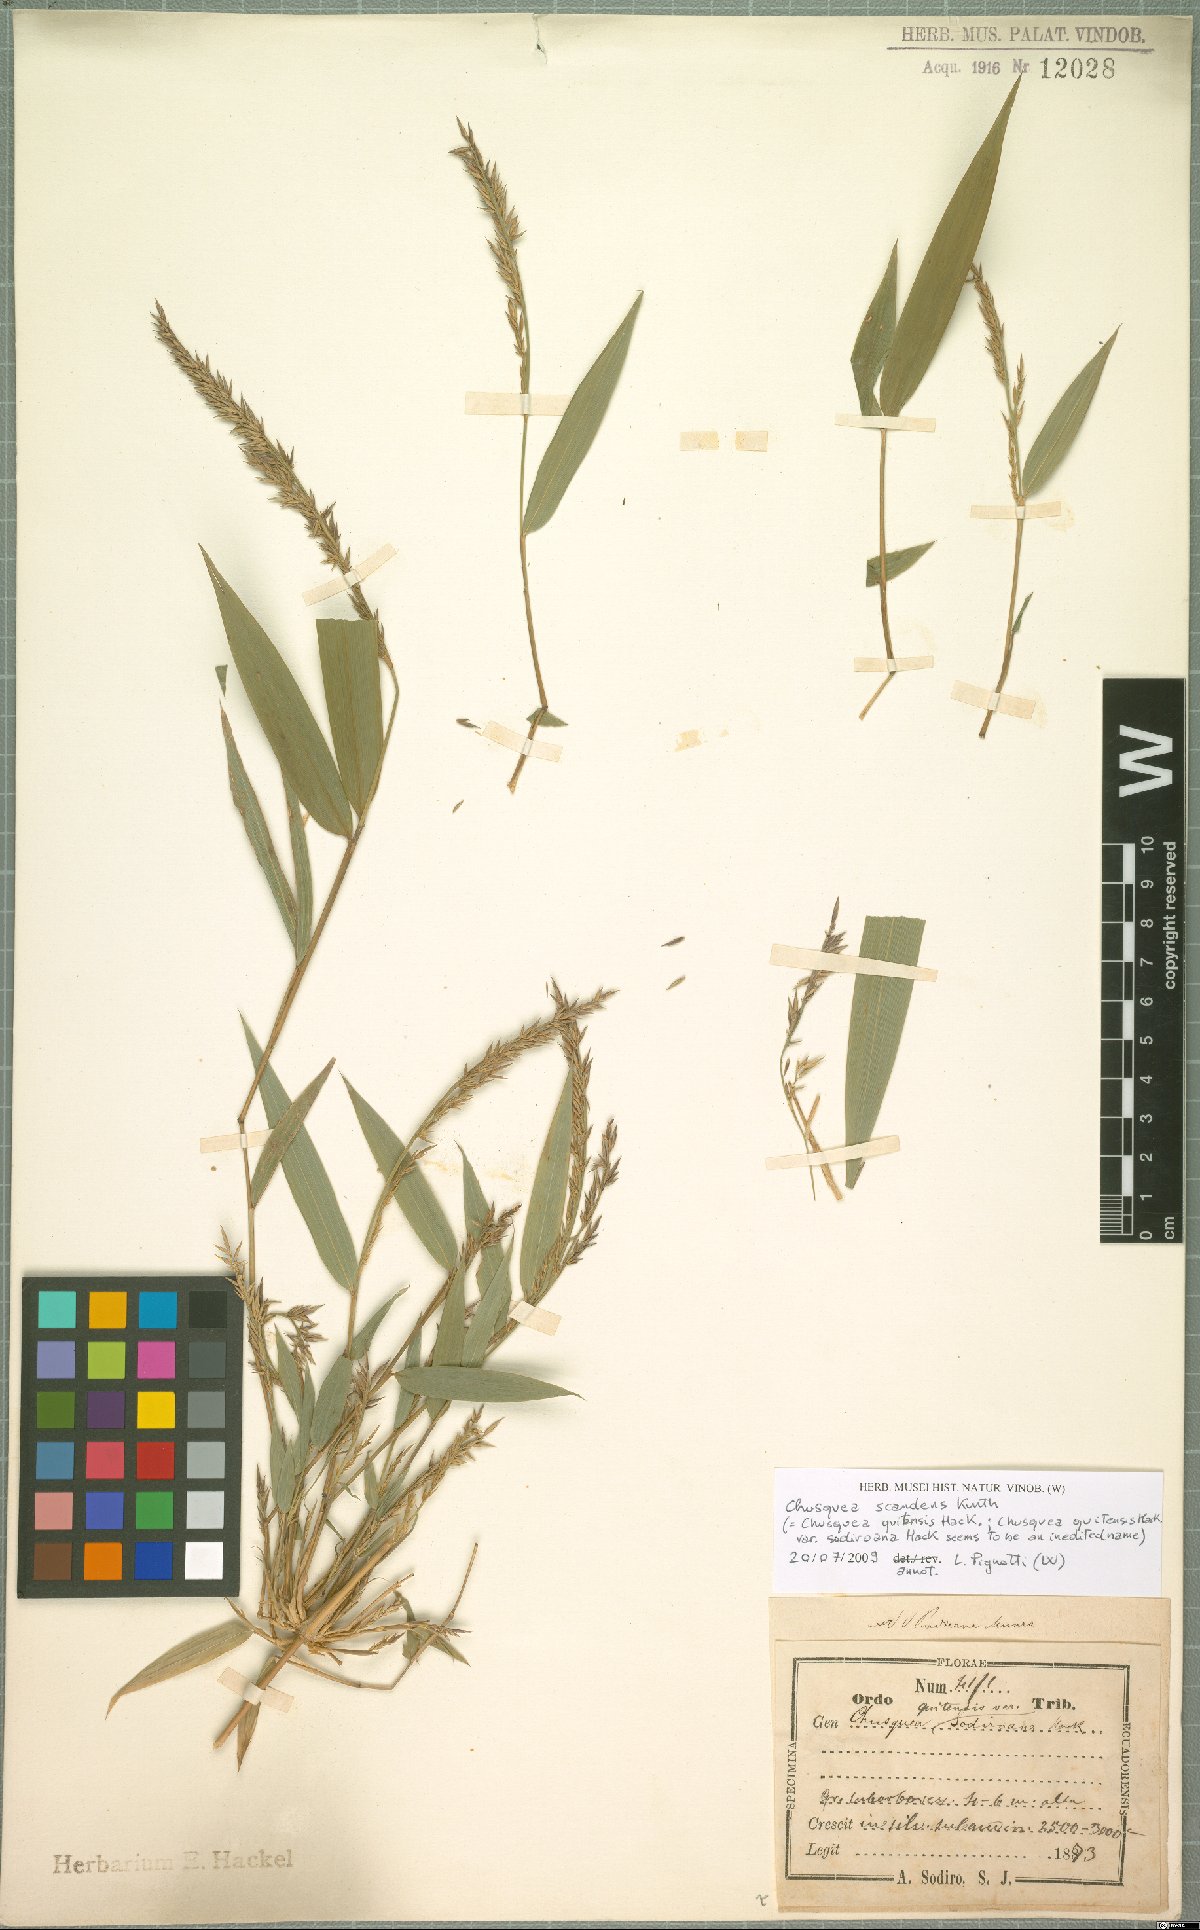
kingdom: Plantae
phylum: Tracheophyta
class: Liliopsida
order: Poales
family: Poaceae
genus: Chusquea
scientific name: Chusquea scandens
